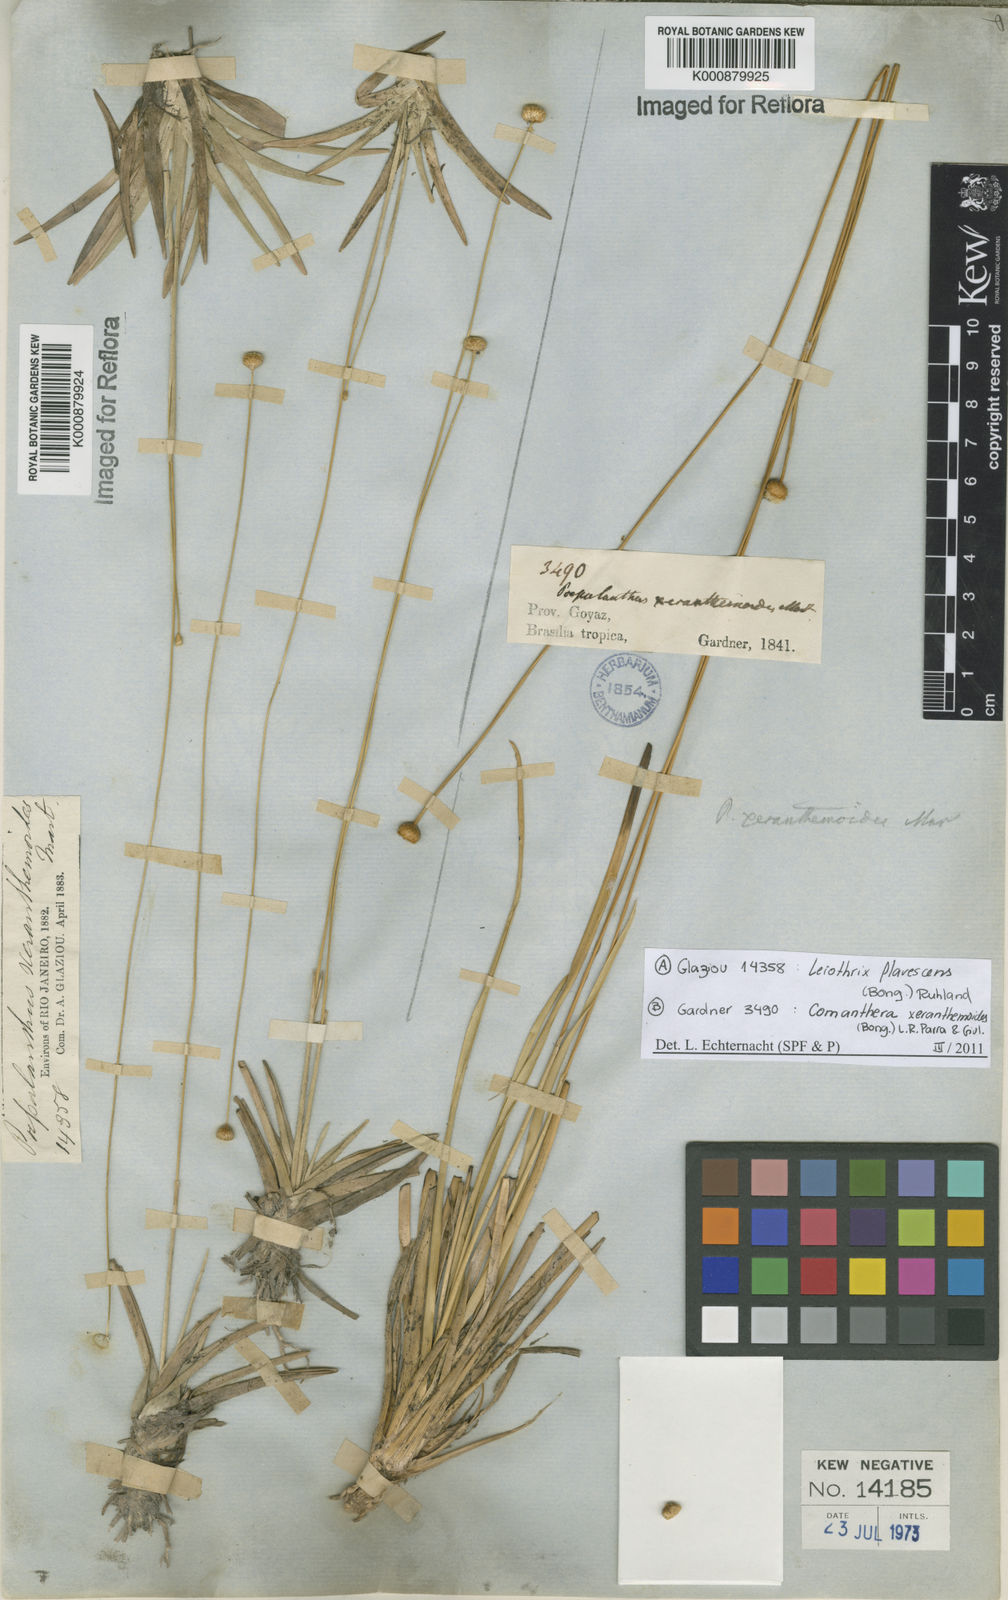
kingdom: Plantae
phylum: Tracheophyta
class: Liliopsida
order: Poales
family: Eriocaulaceae
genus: Comanthera
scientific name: Comanthera xeranthemoides
